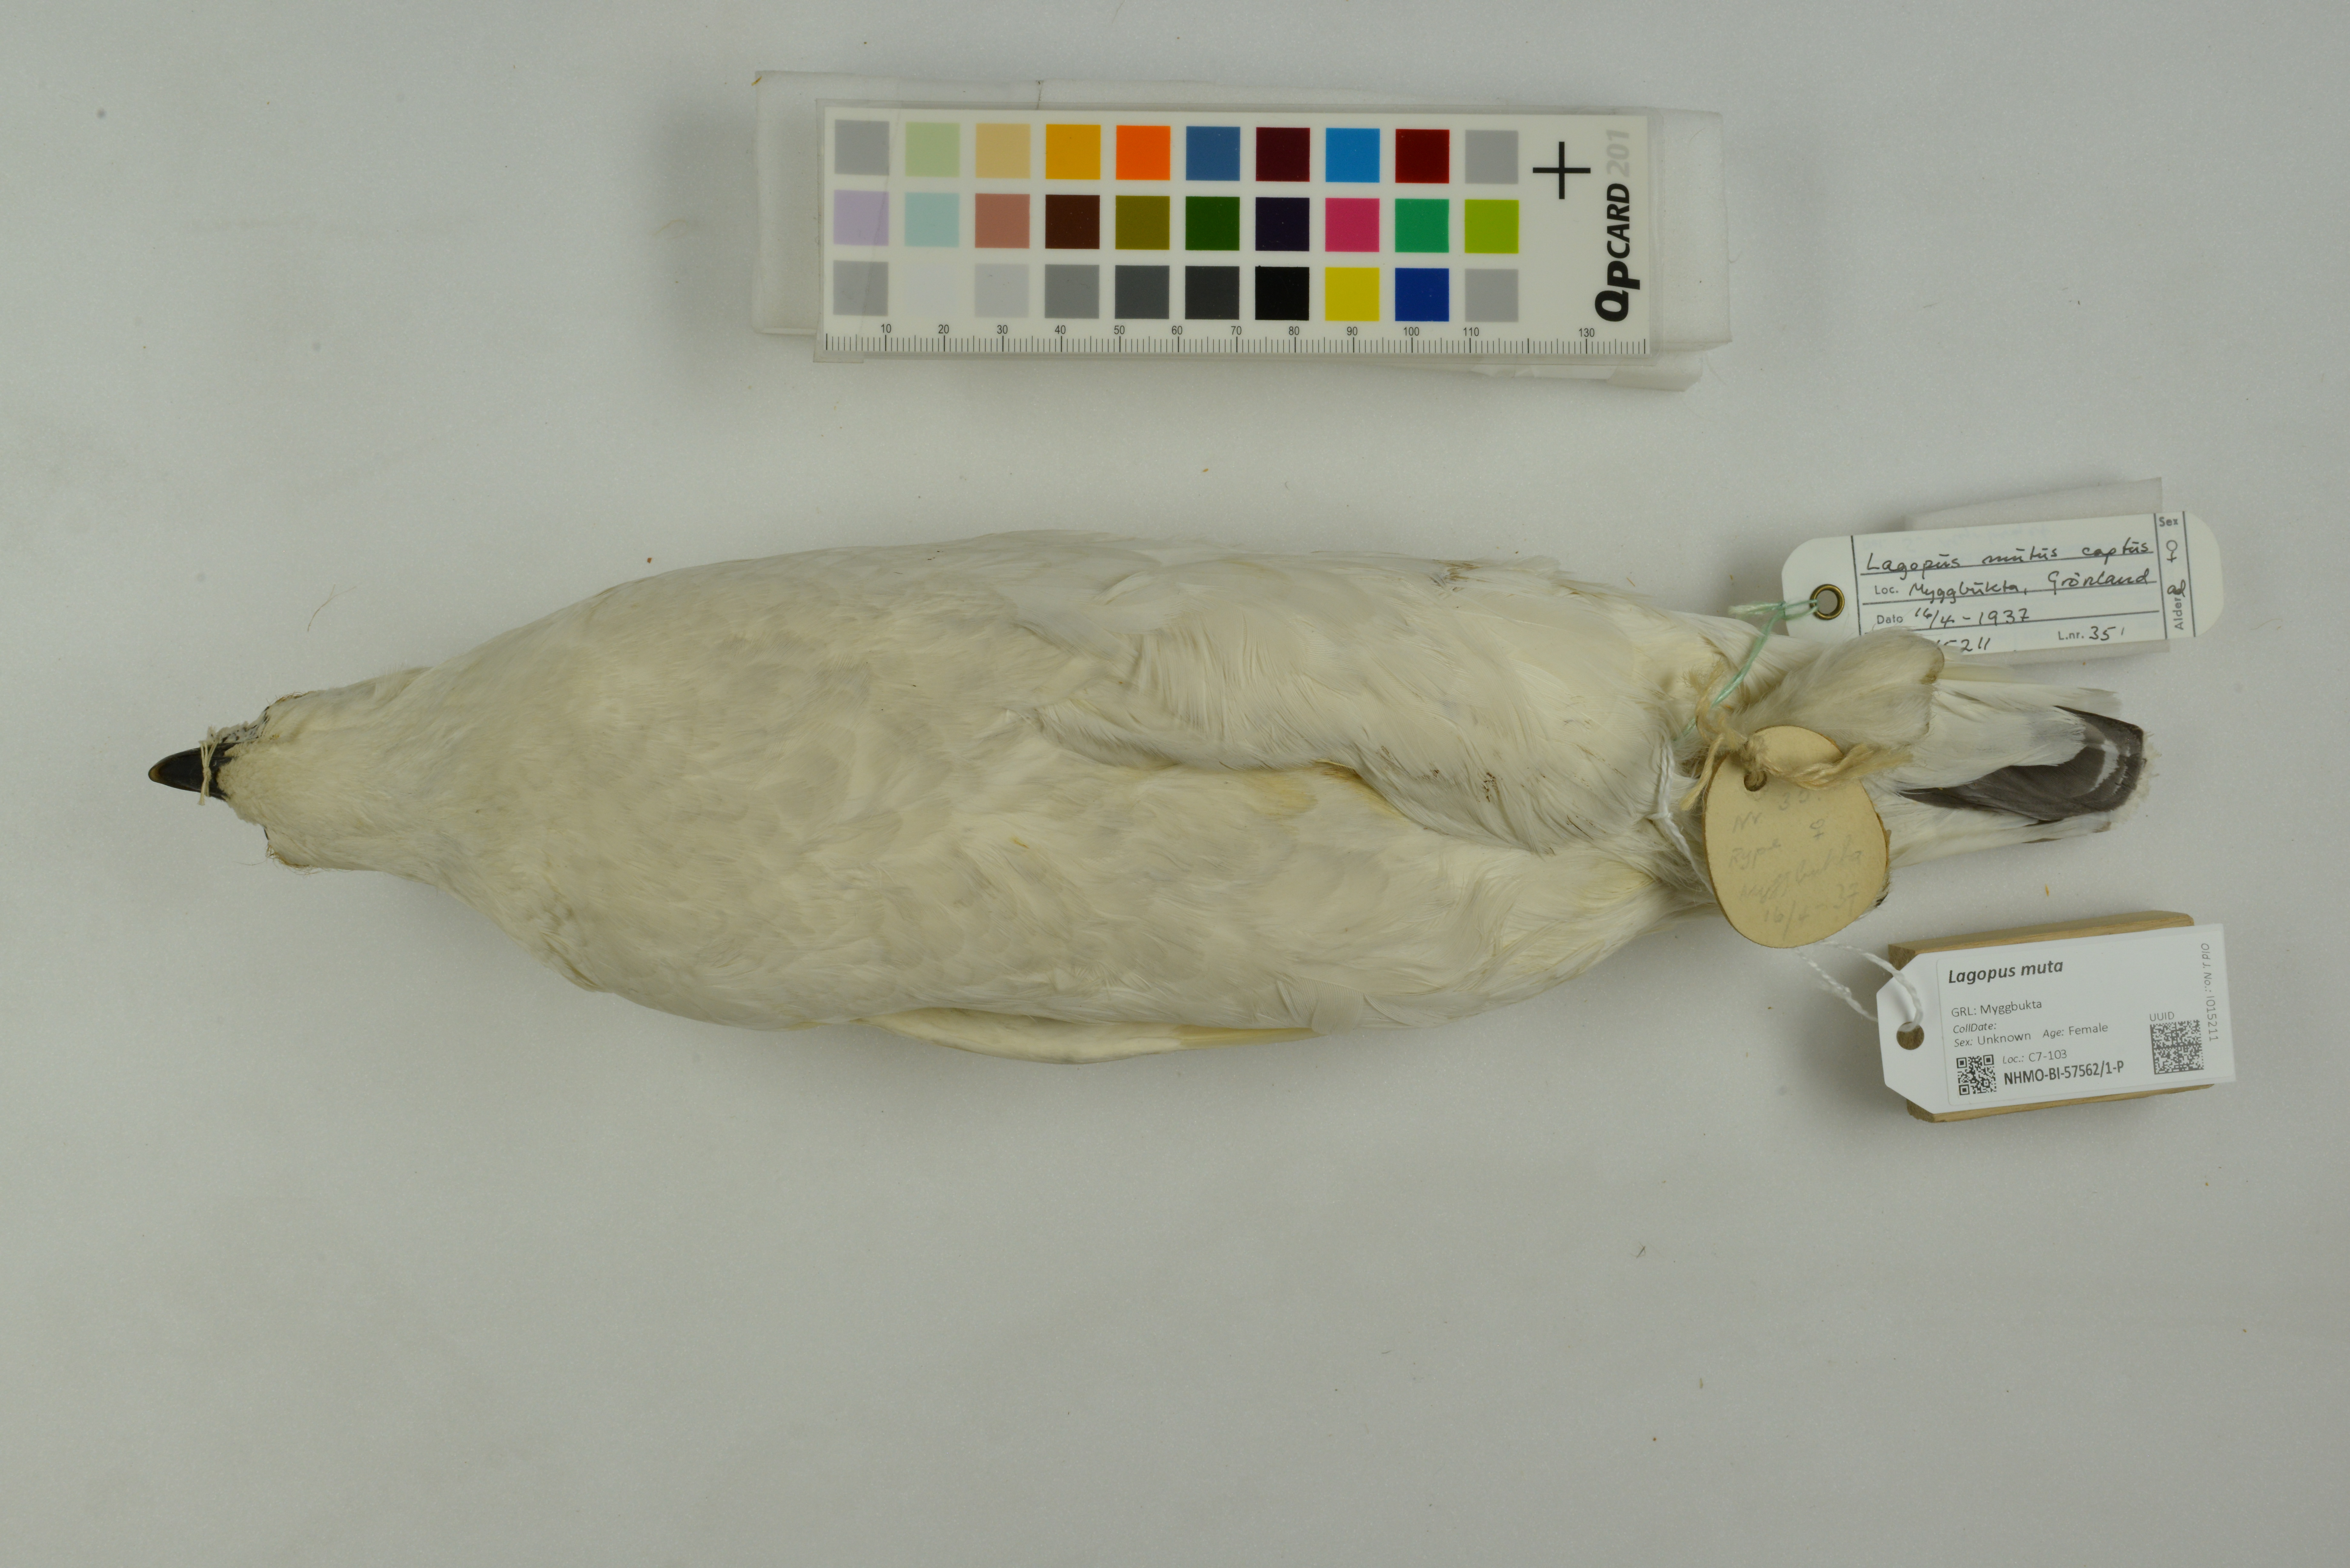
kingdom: Animalia
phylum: Chordata
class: Aves
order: Galliformes
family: Phasianidae
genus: Lagopus
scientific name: Lagopus muta
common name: Rock ptarmigan
